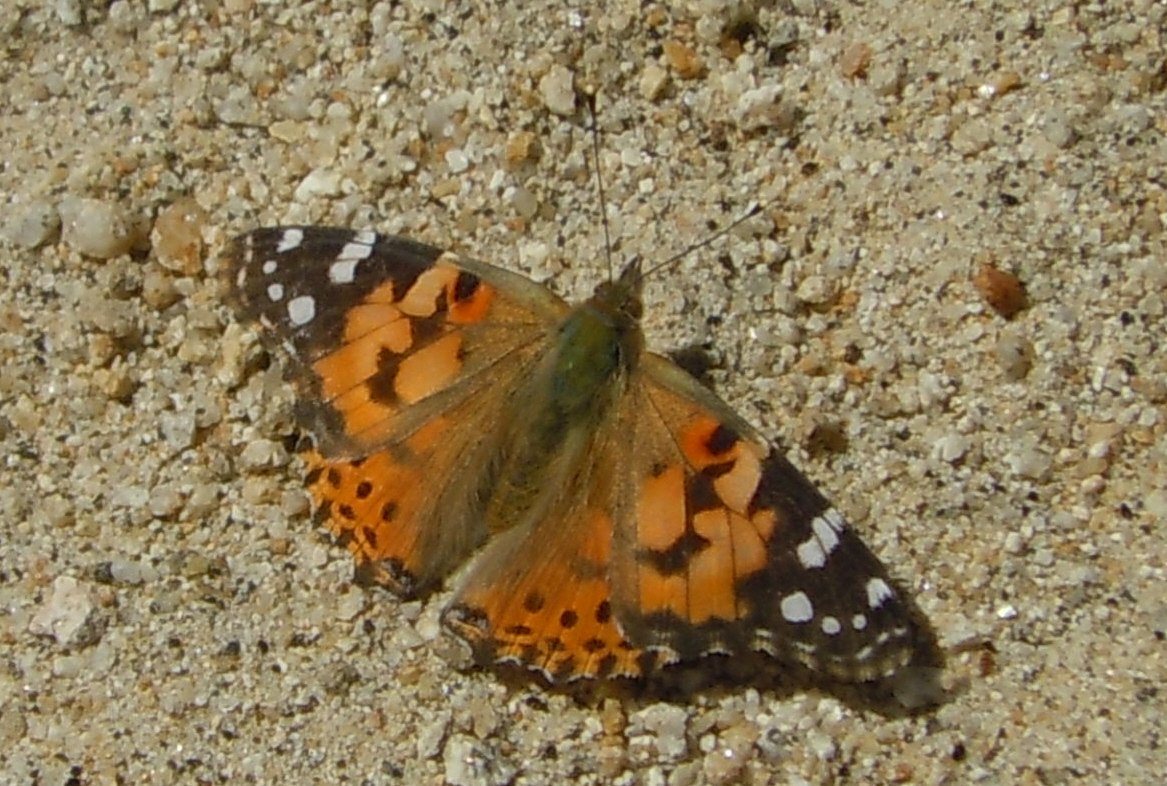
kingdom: Animalia
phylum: Arthropoda
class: Insecta
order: Lepidoptera
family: Nymphalidae
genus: Vanessa
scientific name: Vanessa cardui
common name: Painted Lady
